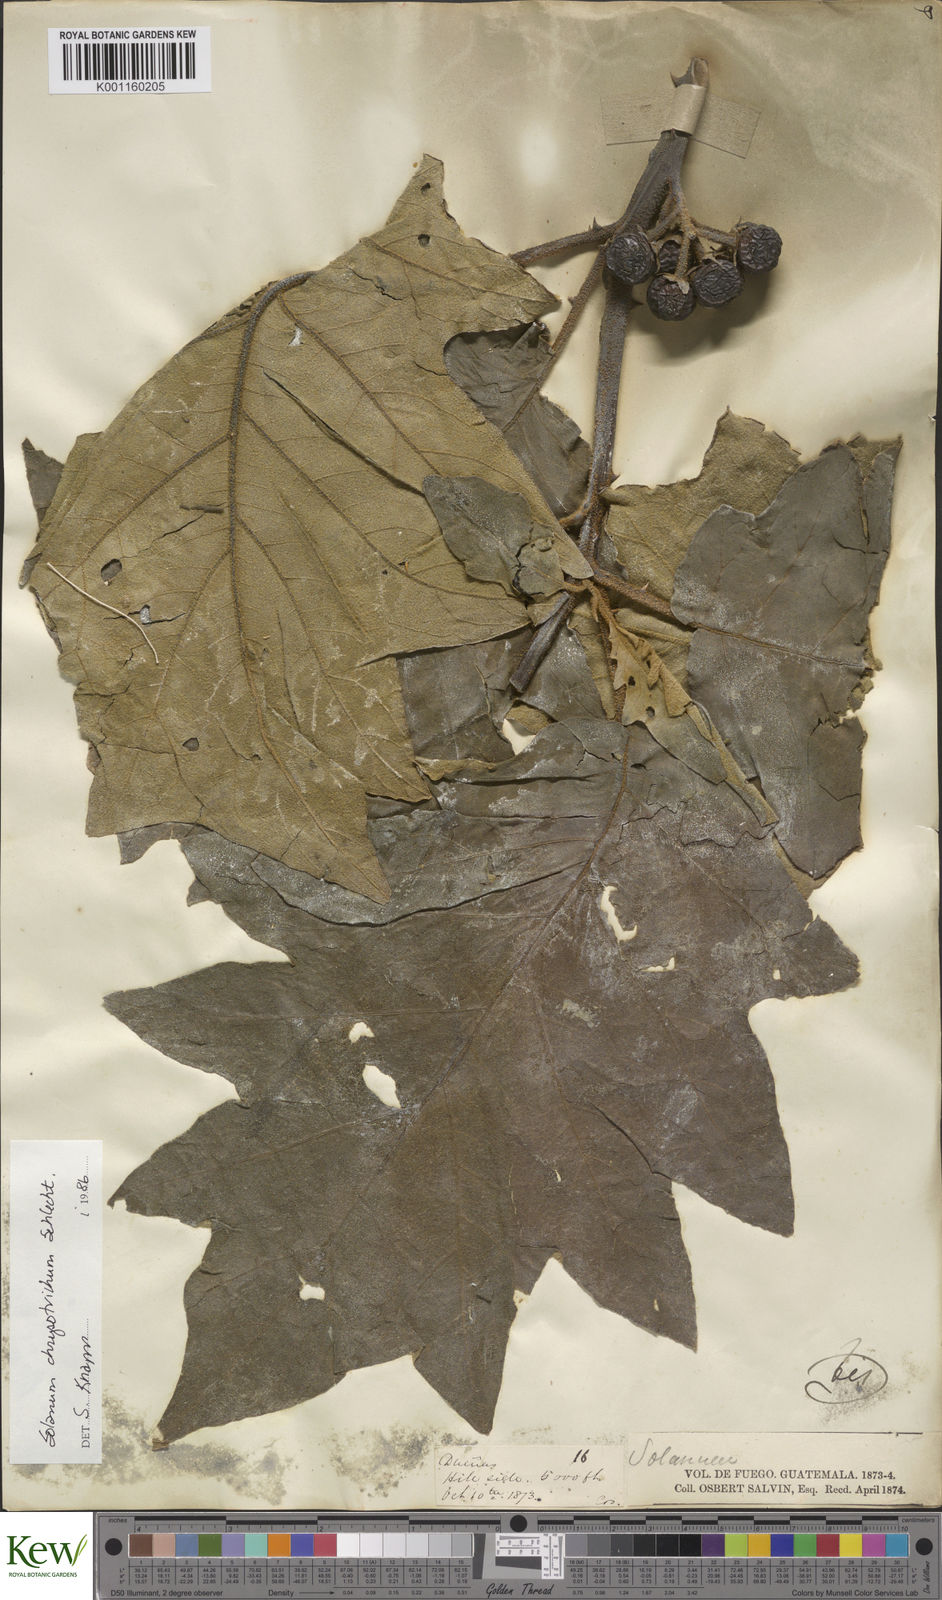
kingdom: Plantae
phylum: Tracheophyta
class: Magnoliopsida
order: Solanales
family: Solanaceae
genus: Solanum
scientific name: Solanum chrysotrichum
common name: Nightshade
